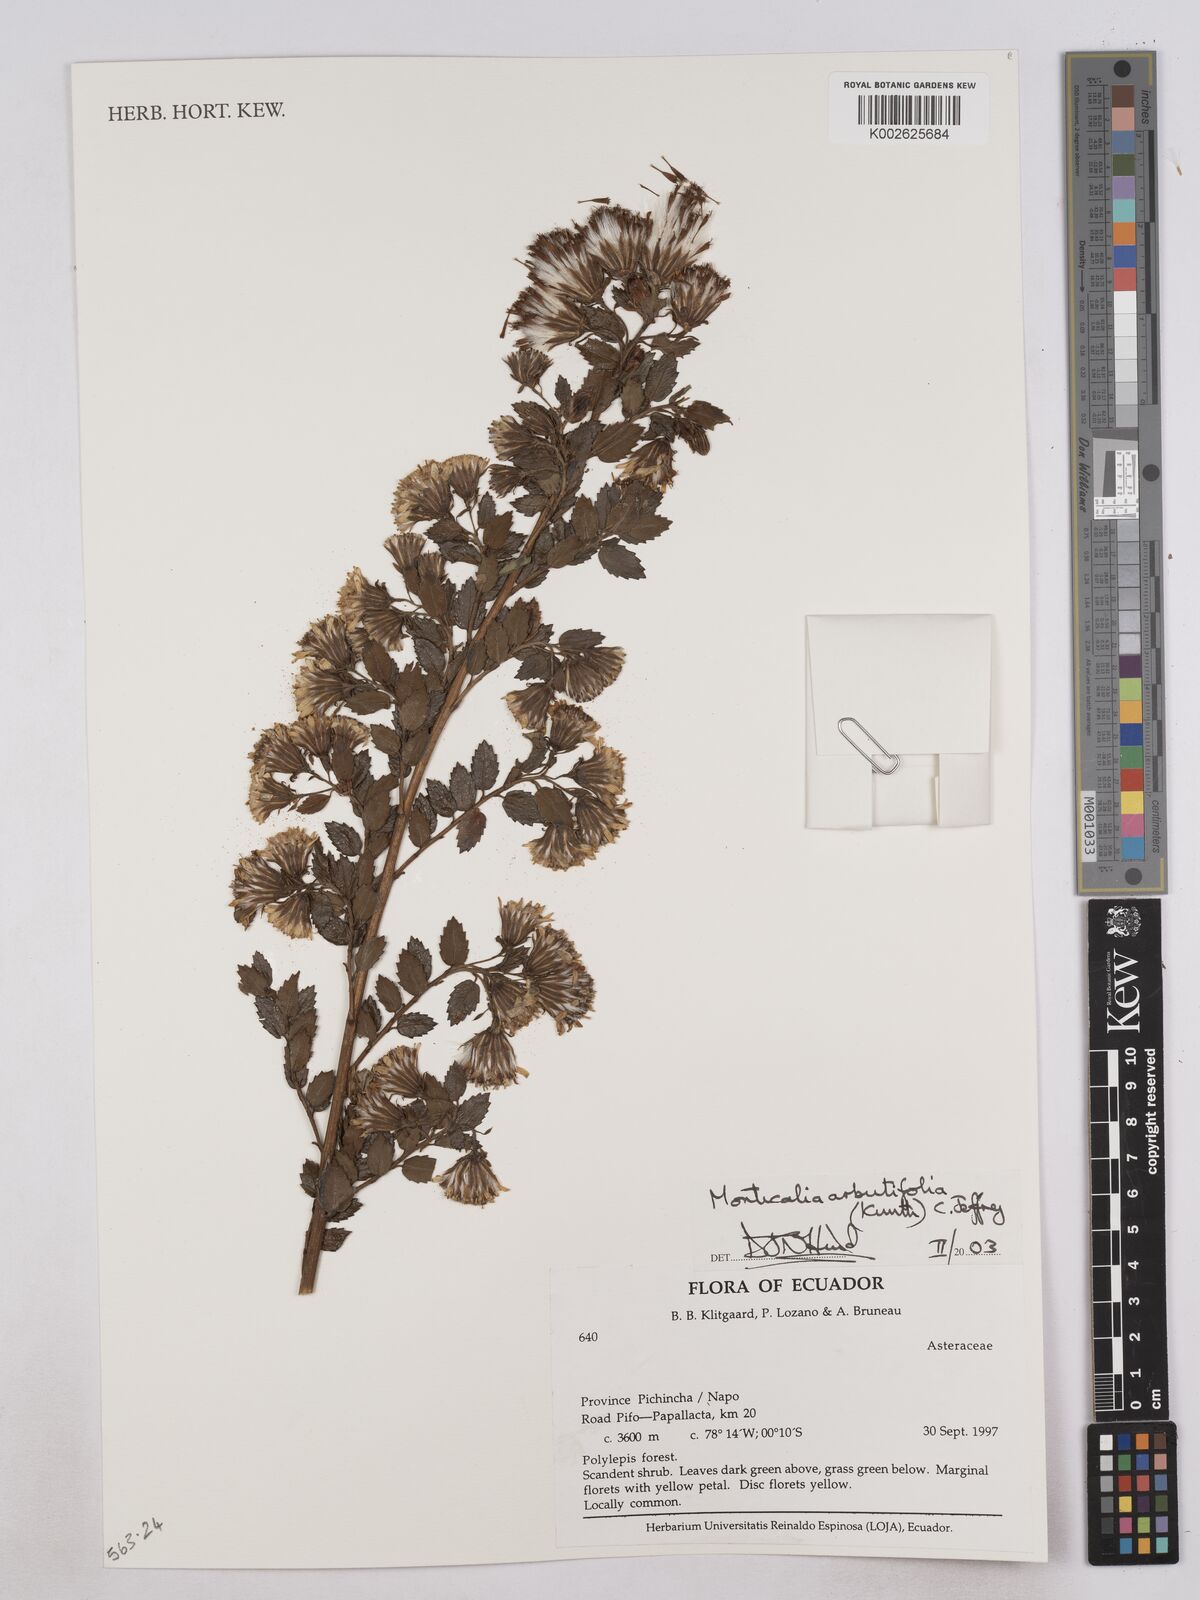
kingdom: Plantae
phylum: Tracheophyta
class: Magnoliopsida
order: Asterales
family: Asteraceae
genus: Monticalia
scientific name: Monticalia arbutifolia
